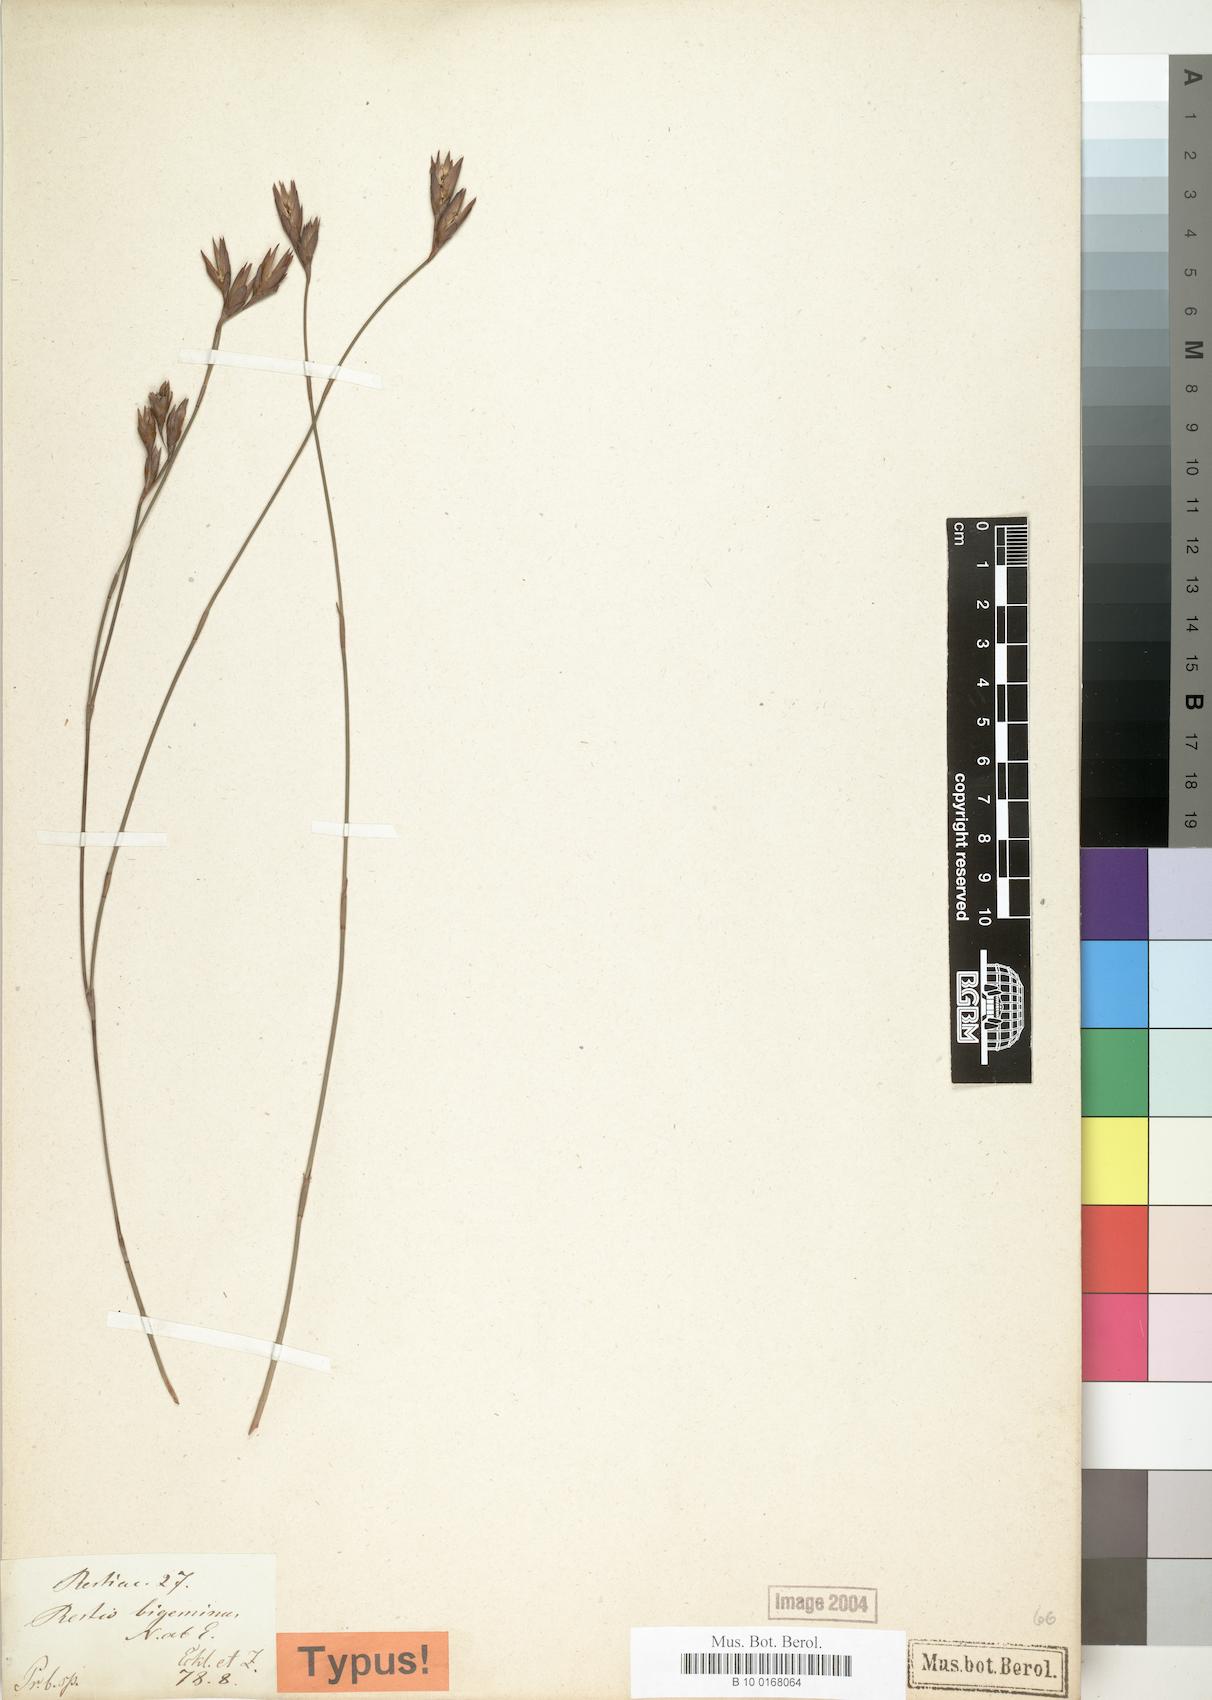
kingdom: Plantae
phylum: Tracheophyta
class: Liliopsida
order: Poales
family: Restionaceae
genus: Restio
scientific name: Restio micans
